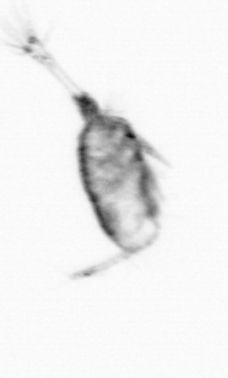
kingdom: Animalia
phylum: Arthropoda
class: Copepoda
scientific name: Copepoda
